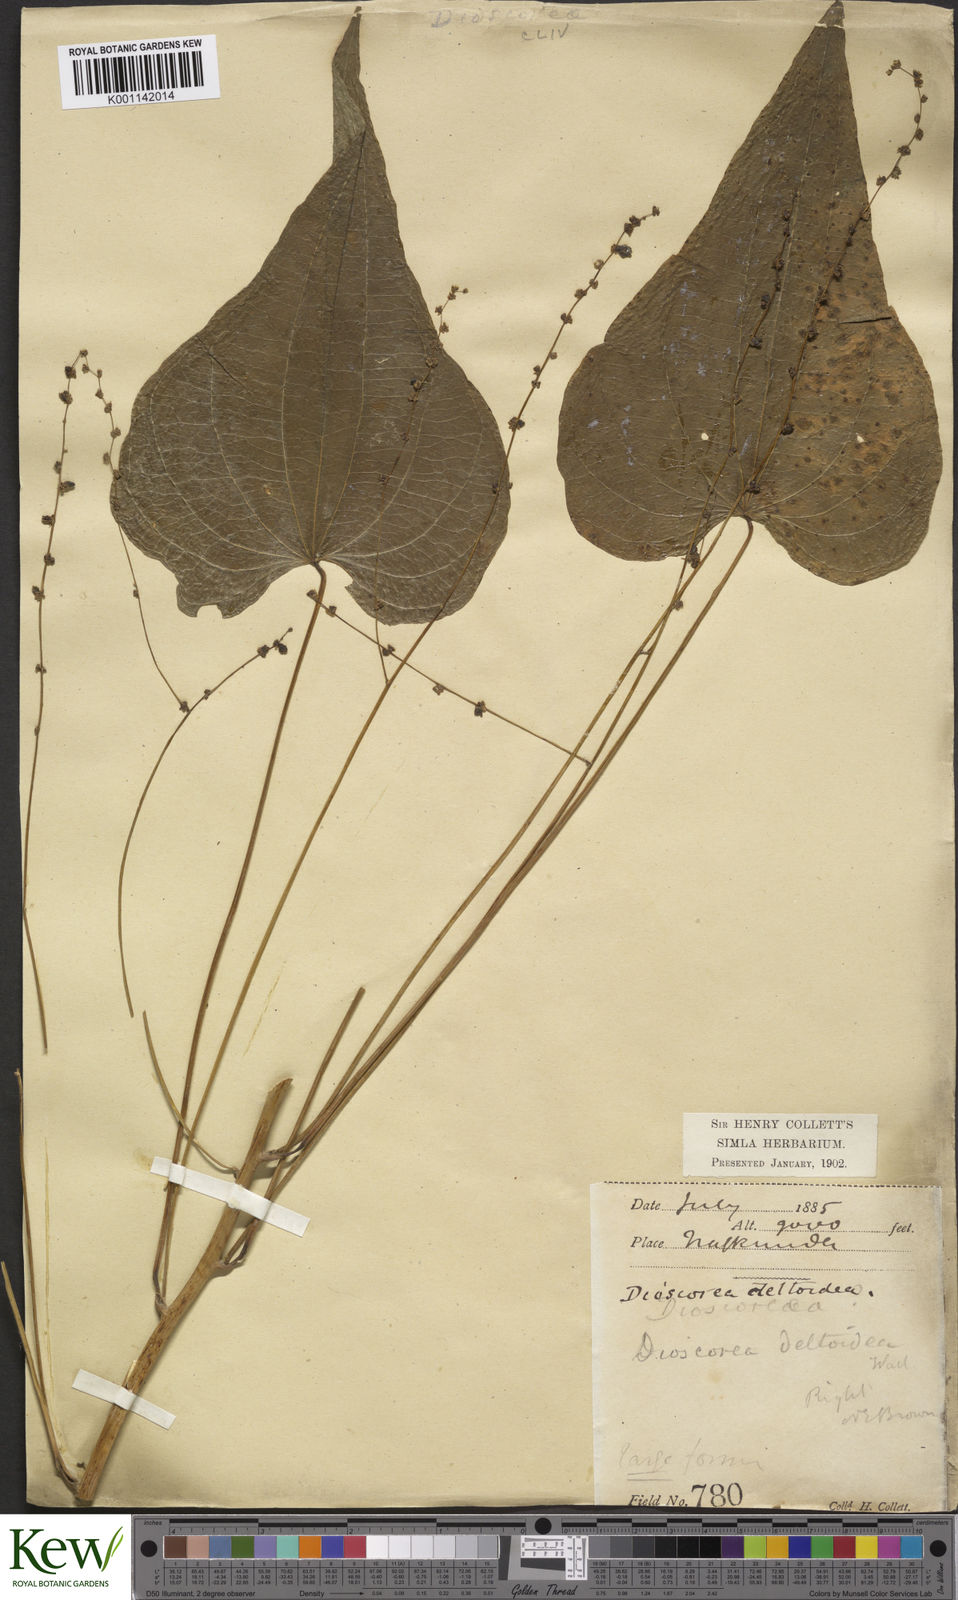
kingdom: Plantae
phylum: Tracheophyta
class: Liliopsida
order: Dioscoreales
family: Dioscoreaceae
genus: Dioscorea
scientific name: Dioscorea deltoidea
